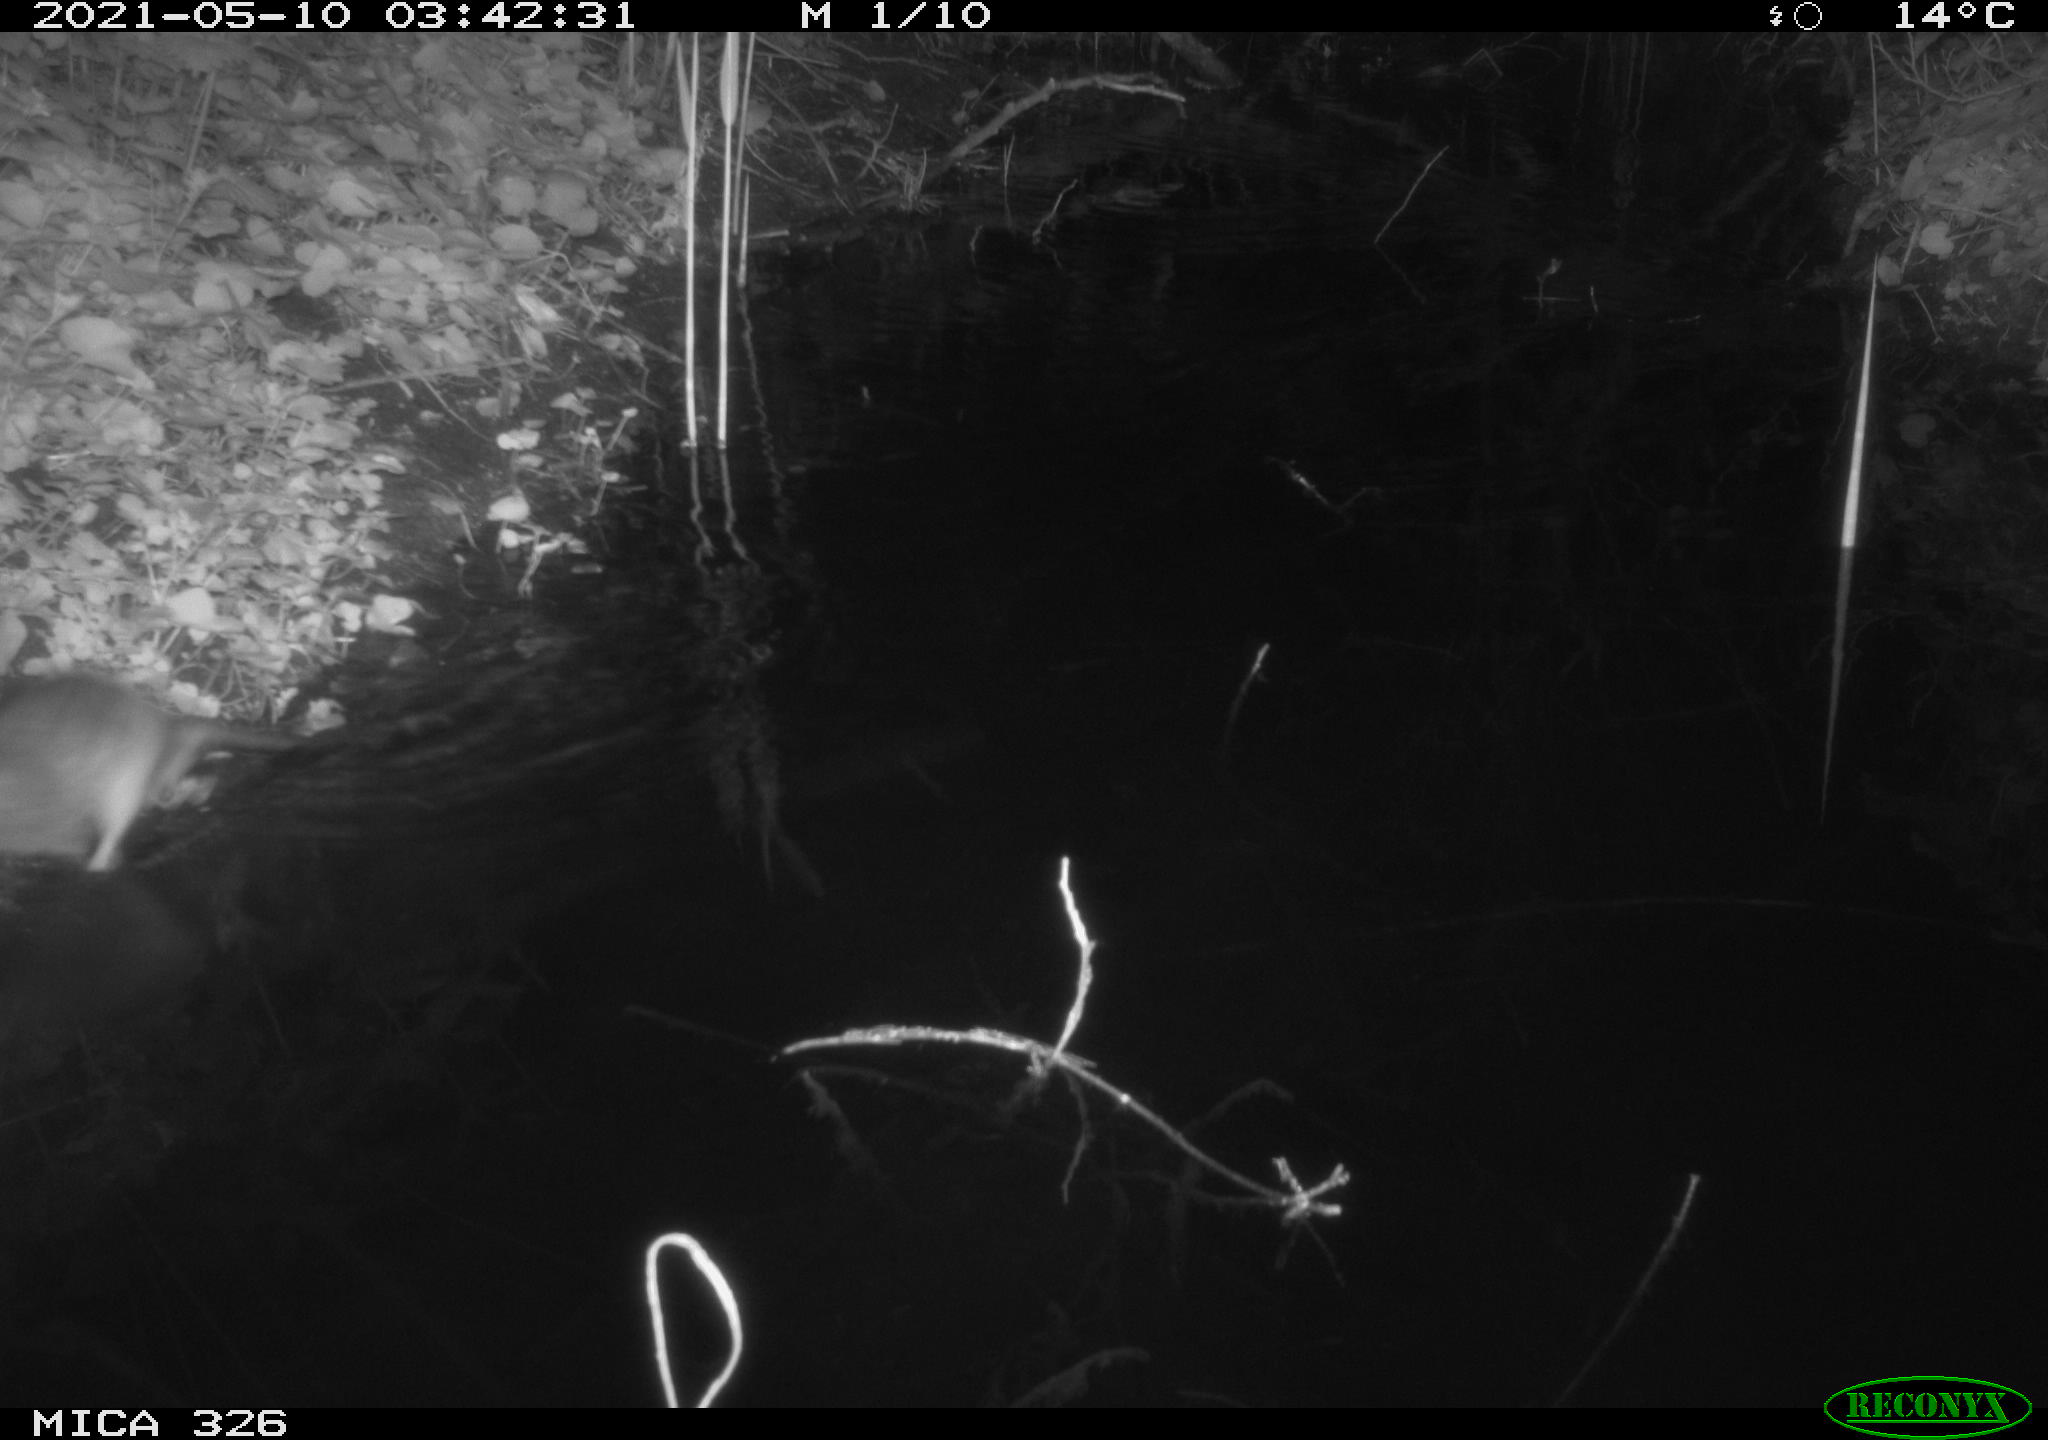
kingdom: Animalia
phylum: Chordata
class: Mammalia
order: Rodentia
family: Muridae
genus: Rattus
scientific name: Rattus norvegicus
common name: Brown rat
